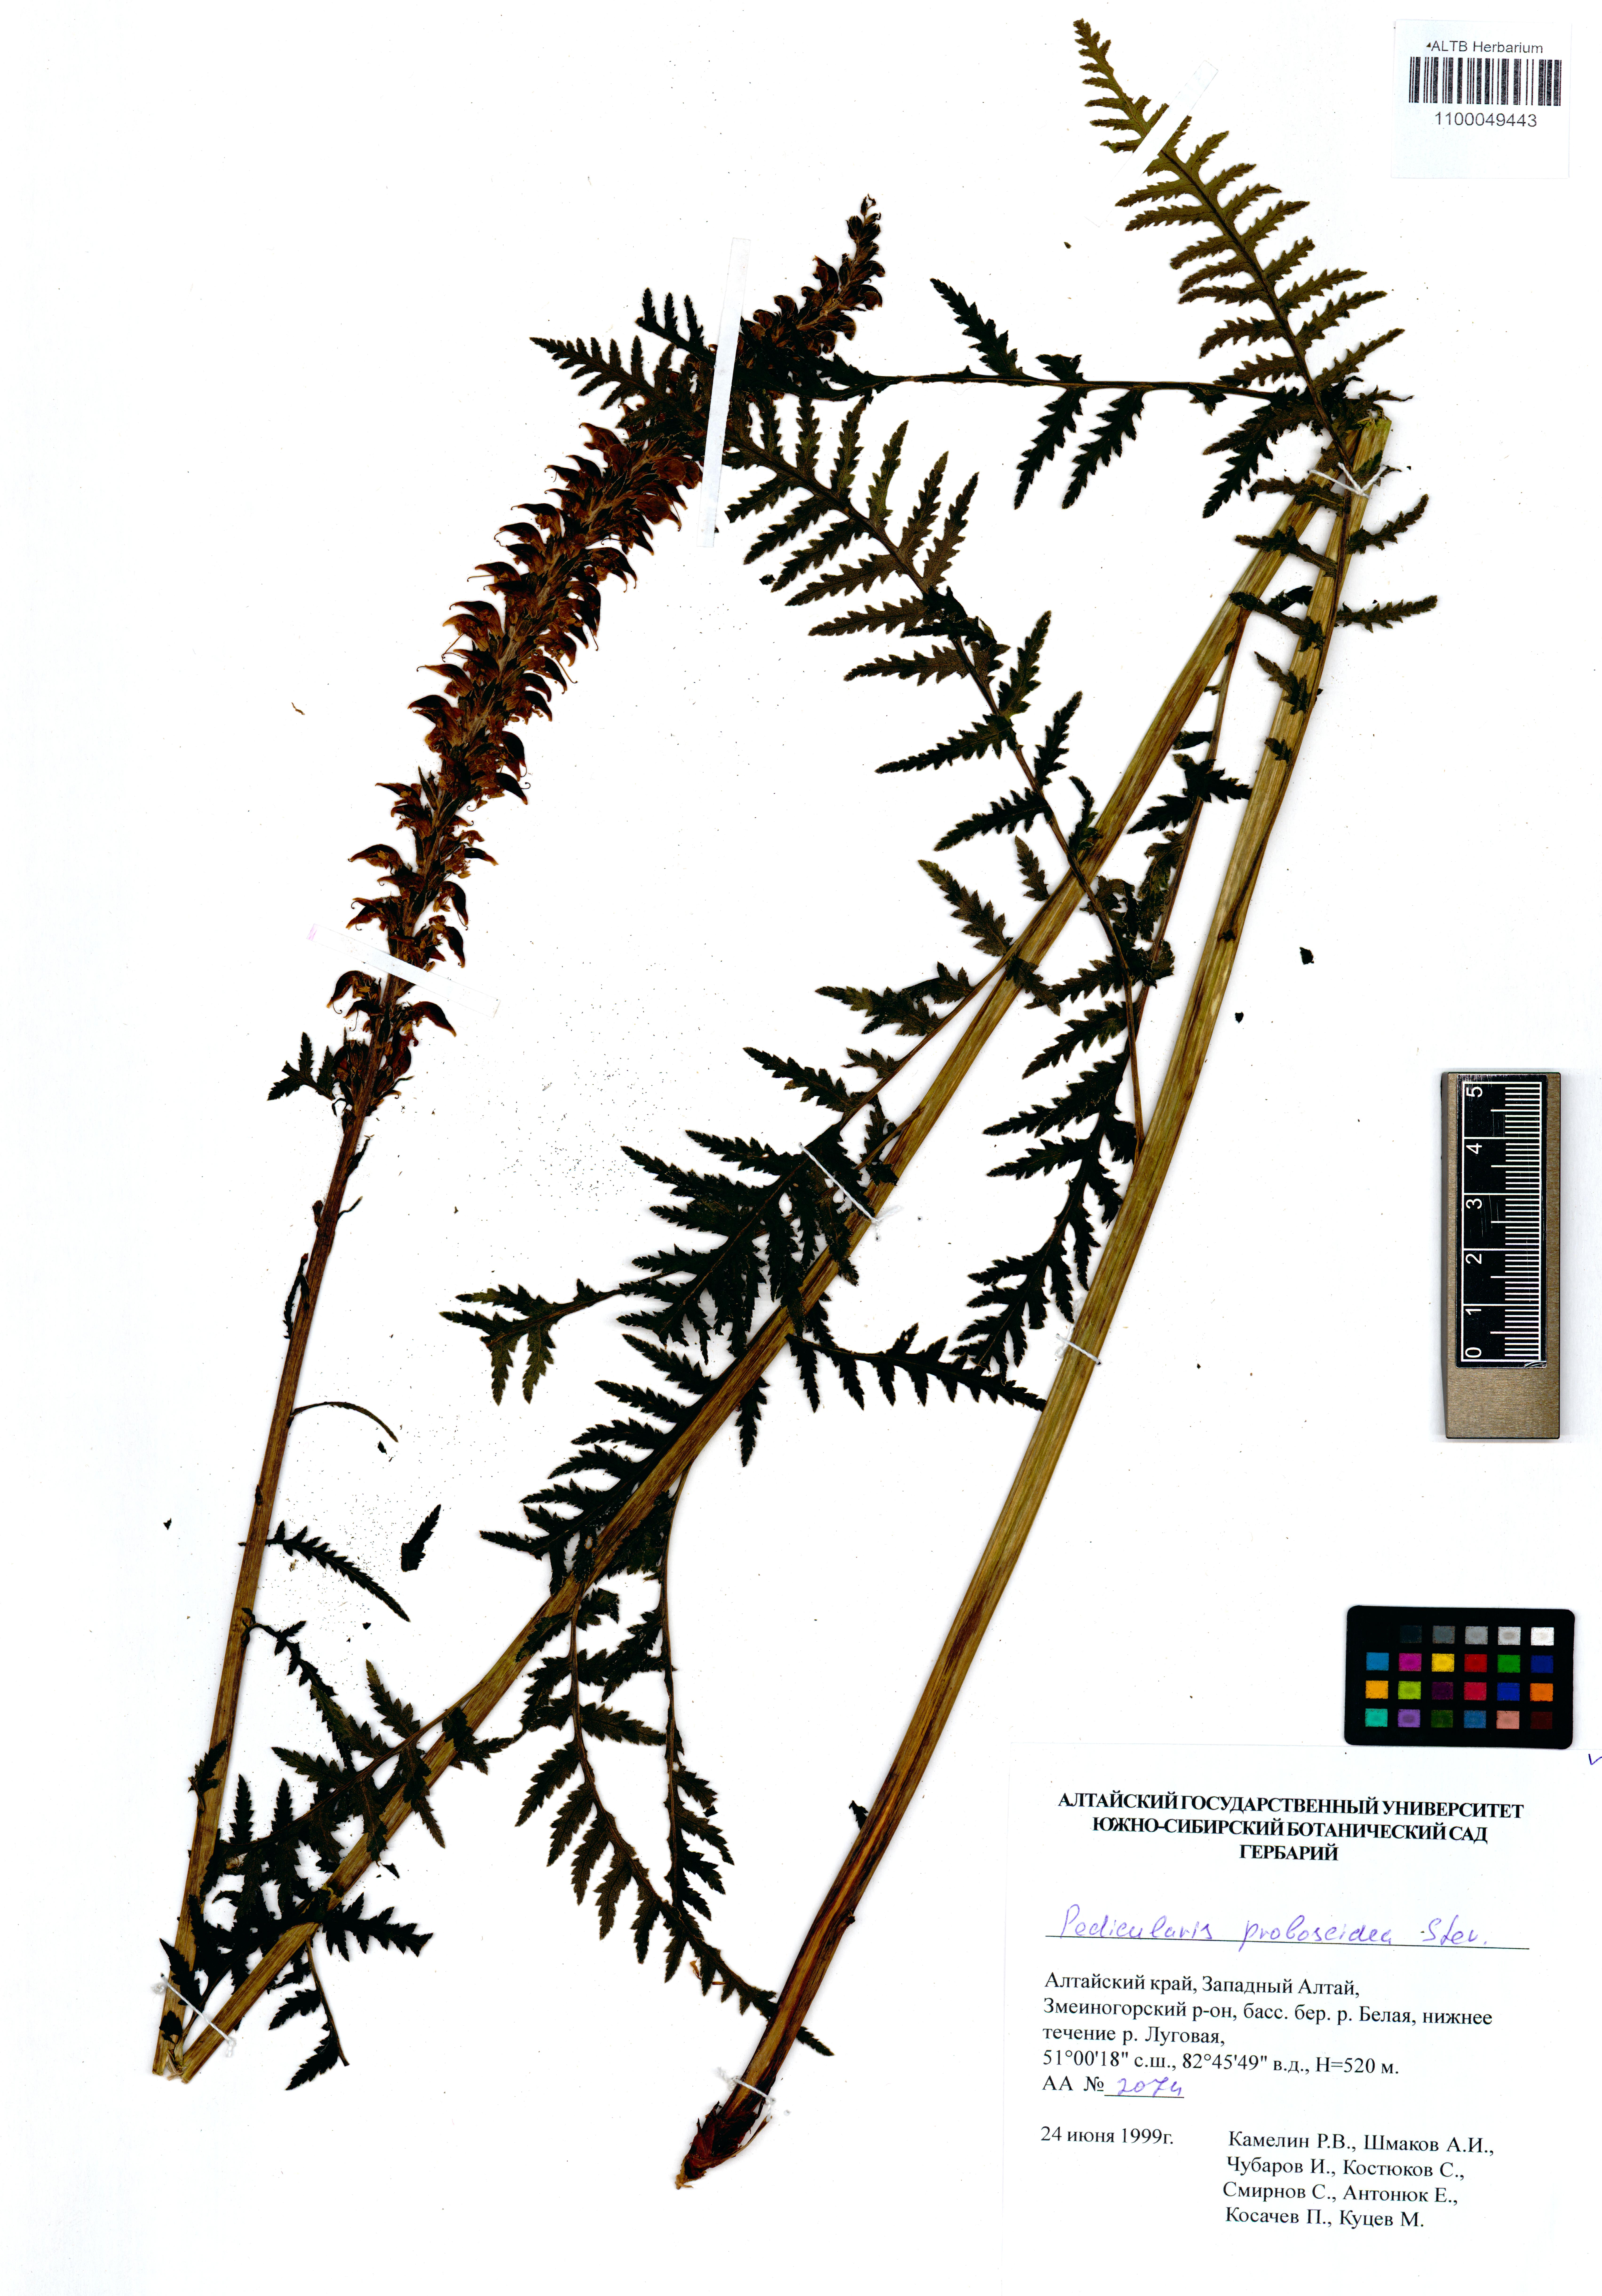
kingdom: Plantae
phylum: Tracheophyta
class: Magnoliopsida
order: Lamiales
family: Orobanchaceae
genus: Pedicularis
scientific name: Pedicularis proboscidea
